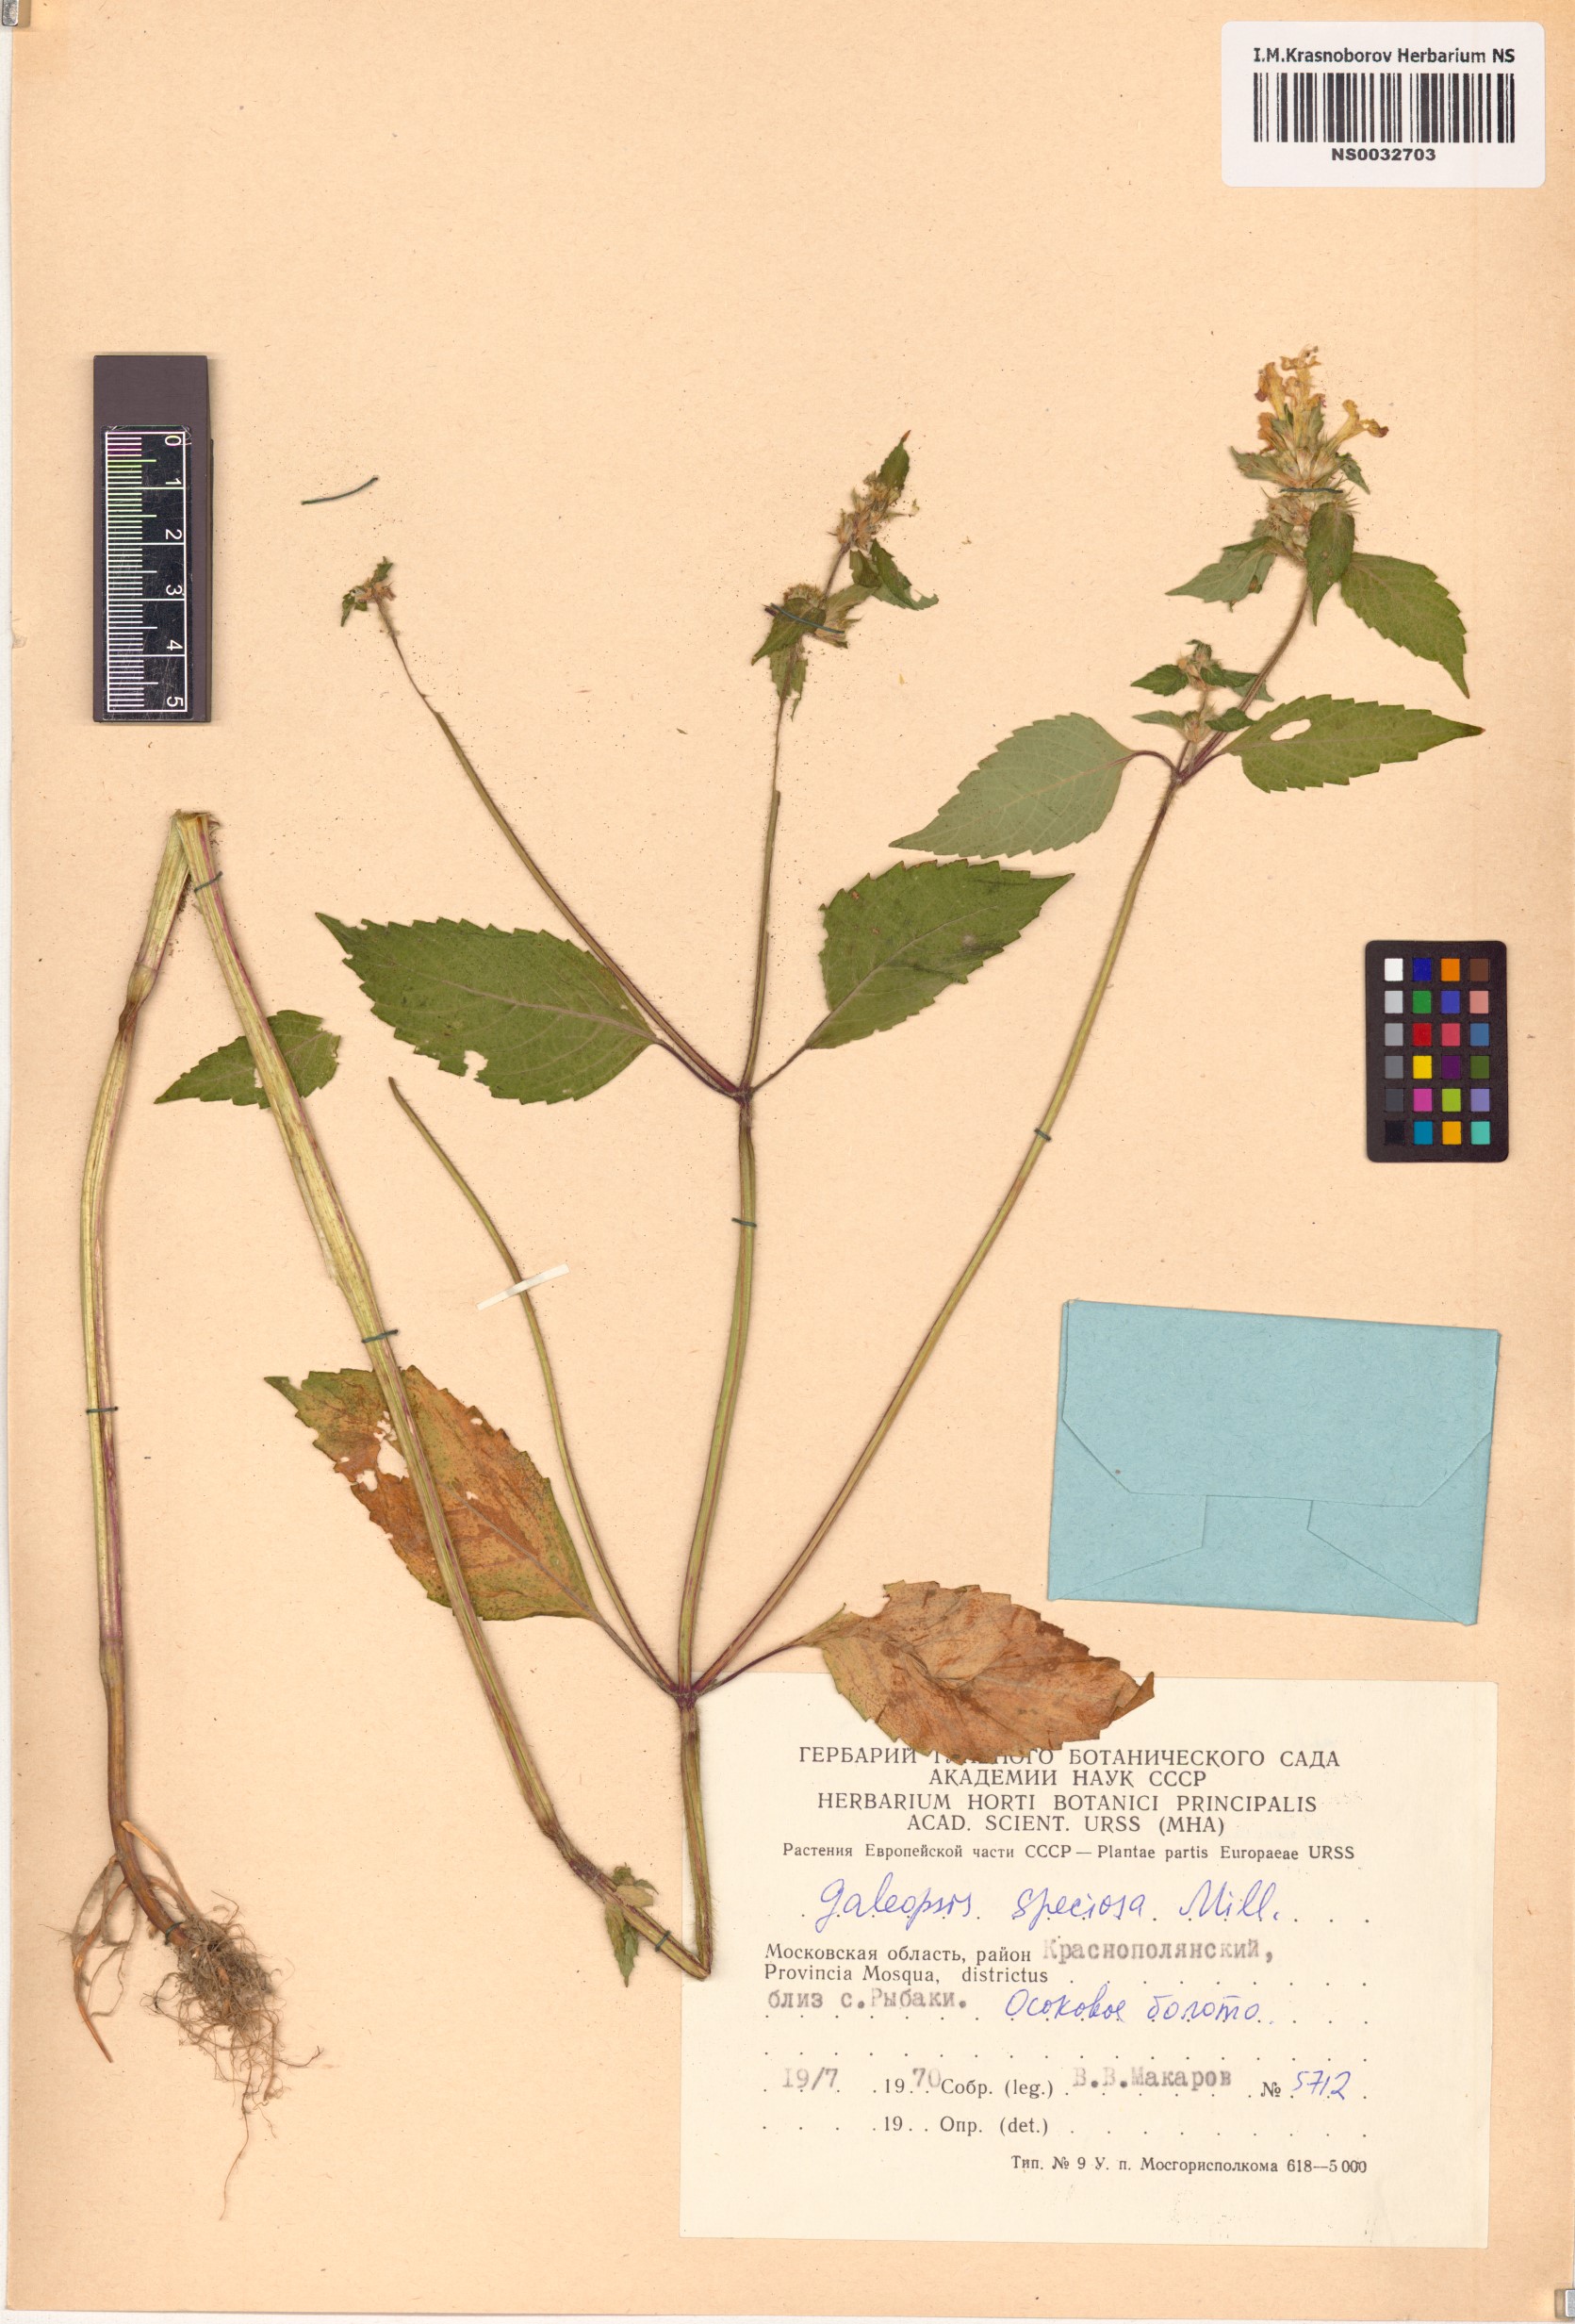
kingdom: Plantae
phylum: Tracheophyta
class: Magnoliopsida
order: Lamiales
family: Lamiaceae
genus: Galeopsis
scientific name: Galeopsis speciosa
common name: Large-flowered hemp-nettle
